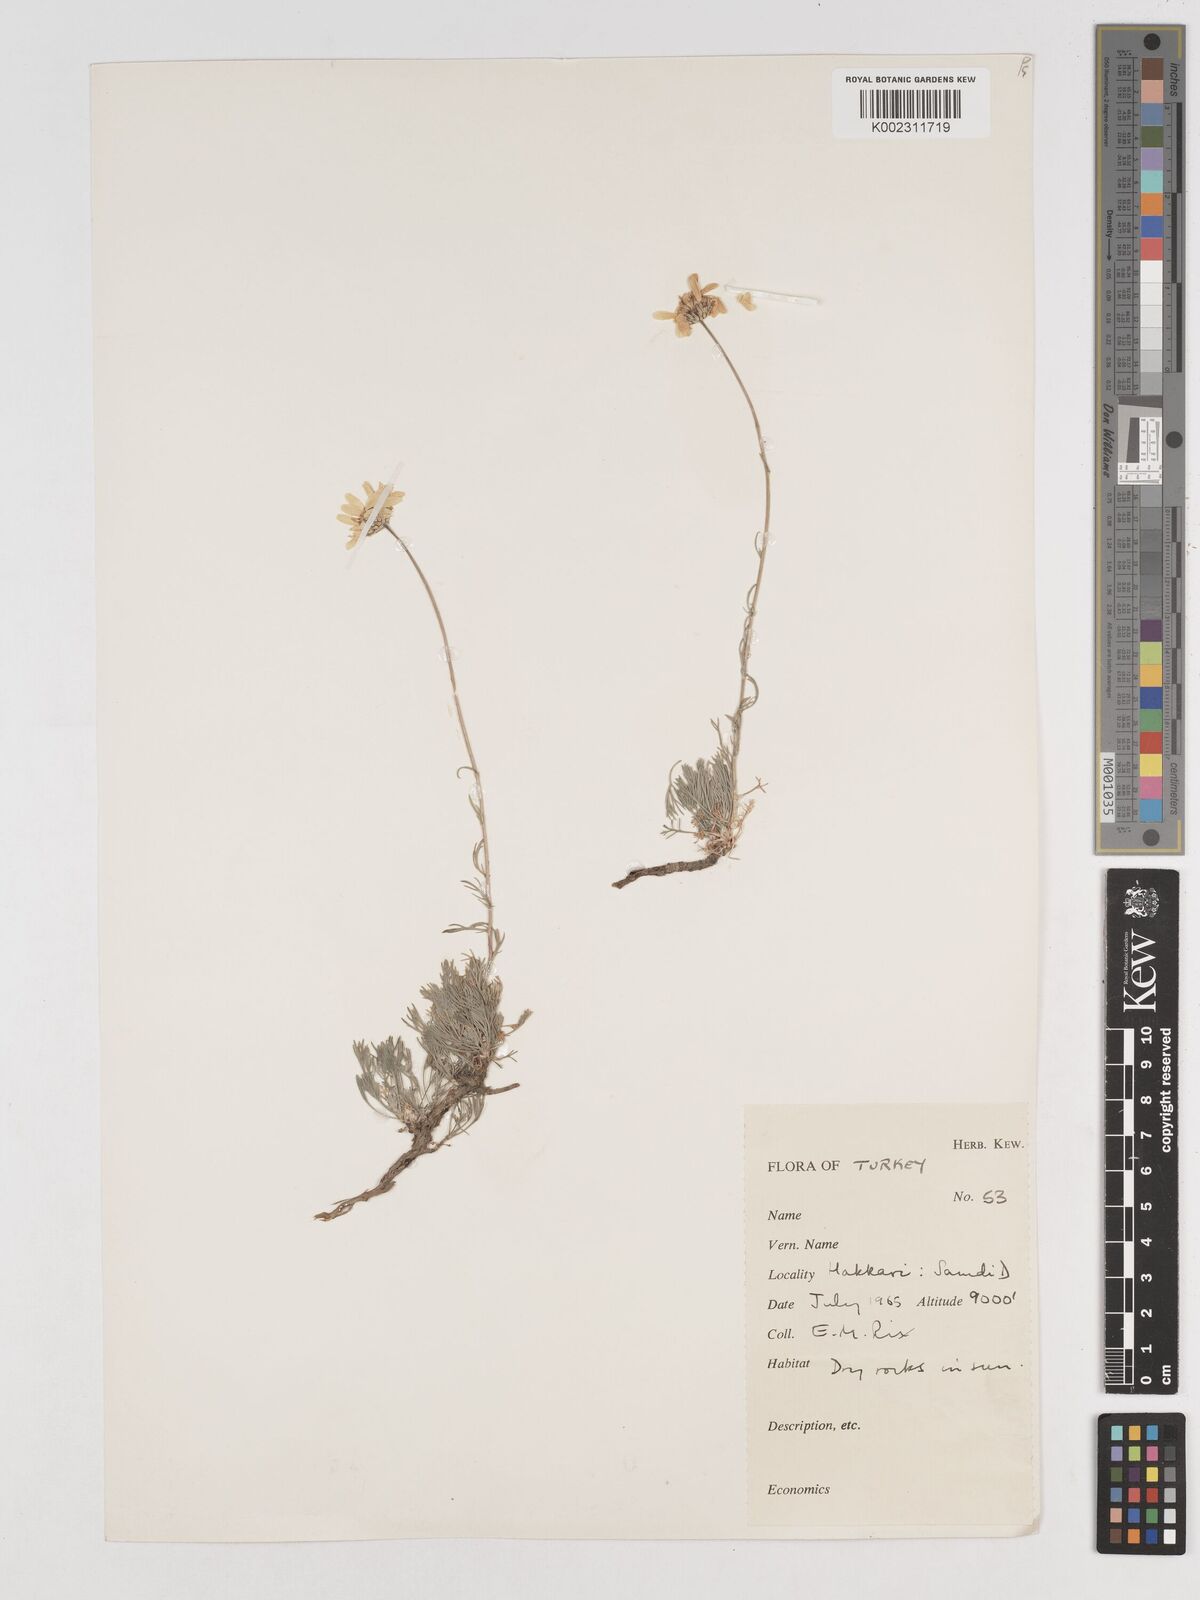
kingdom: Plantae
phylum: Tracheophyta
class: Magnoliopsida
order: Asterales
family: Asteraceae
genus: Tanacetum
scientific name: Tanacetum kotschyi
